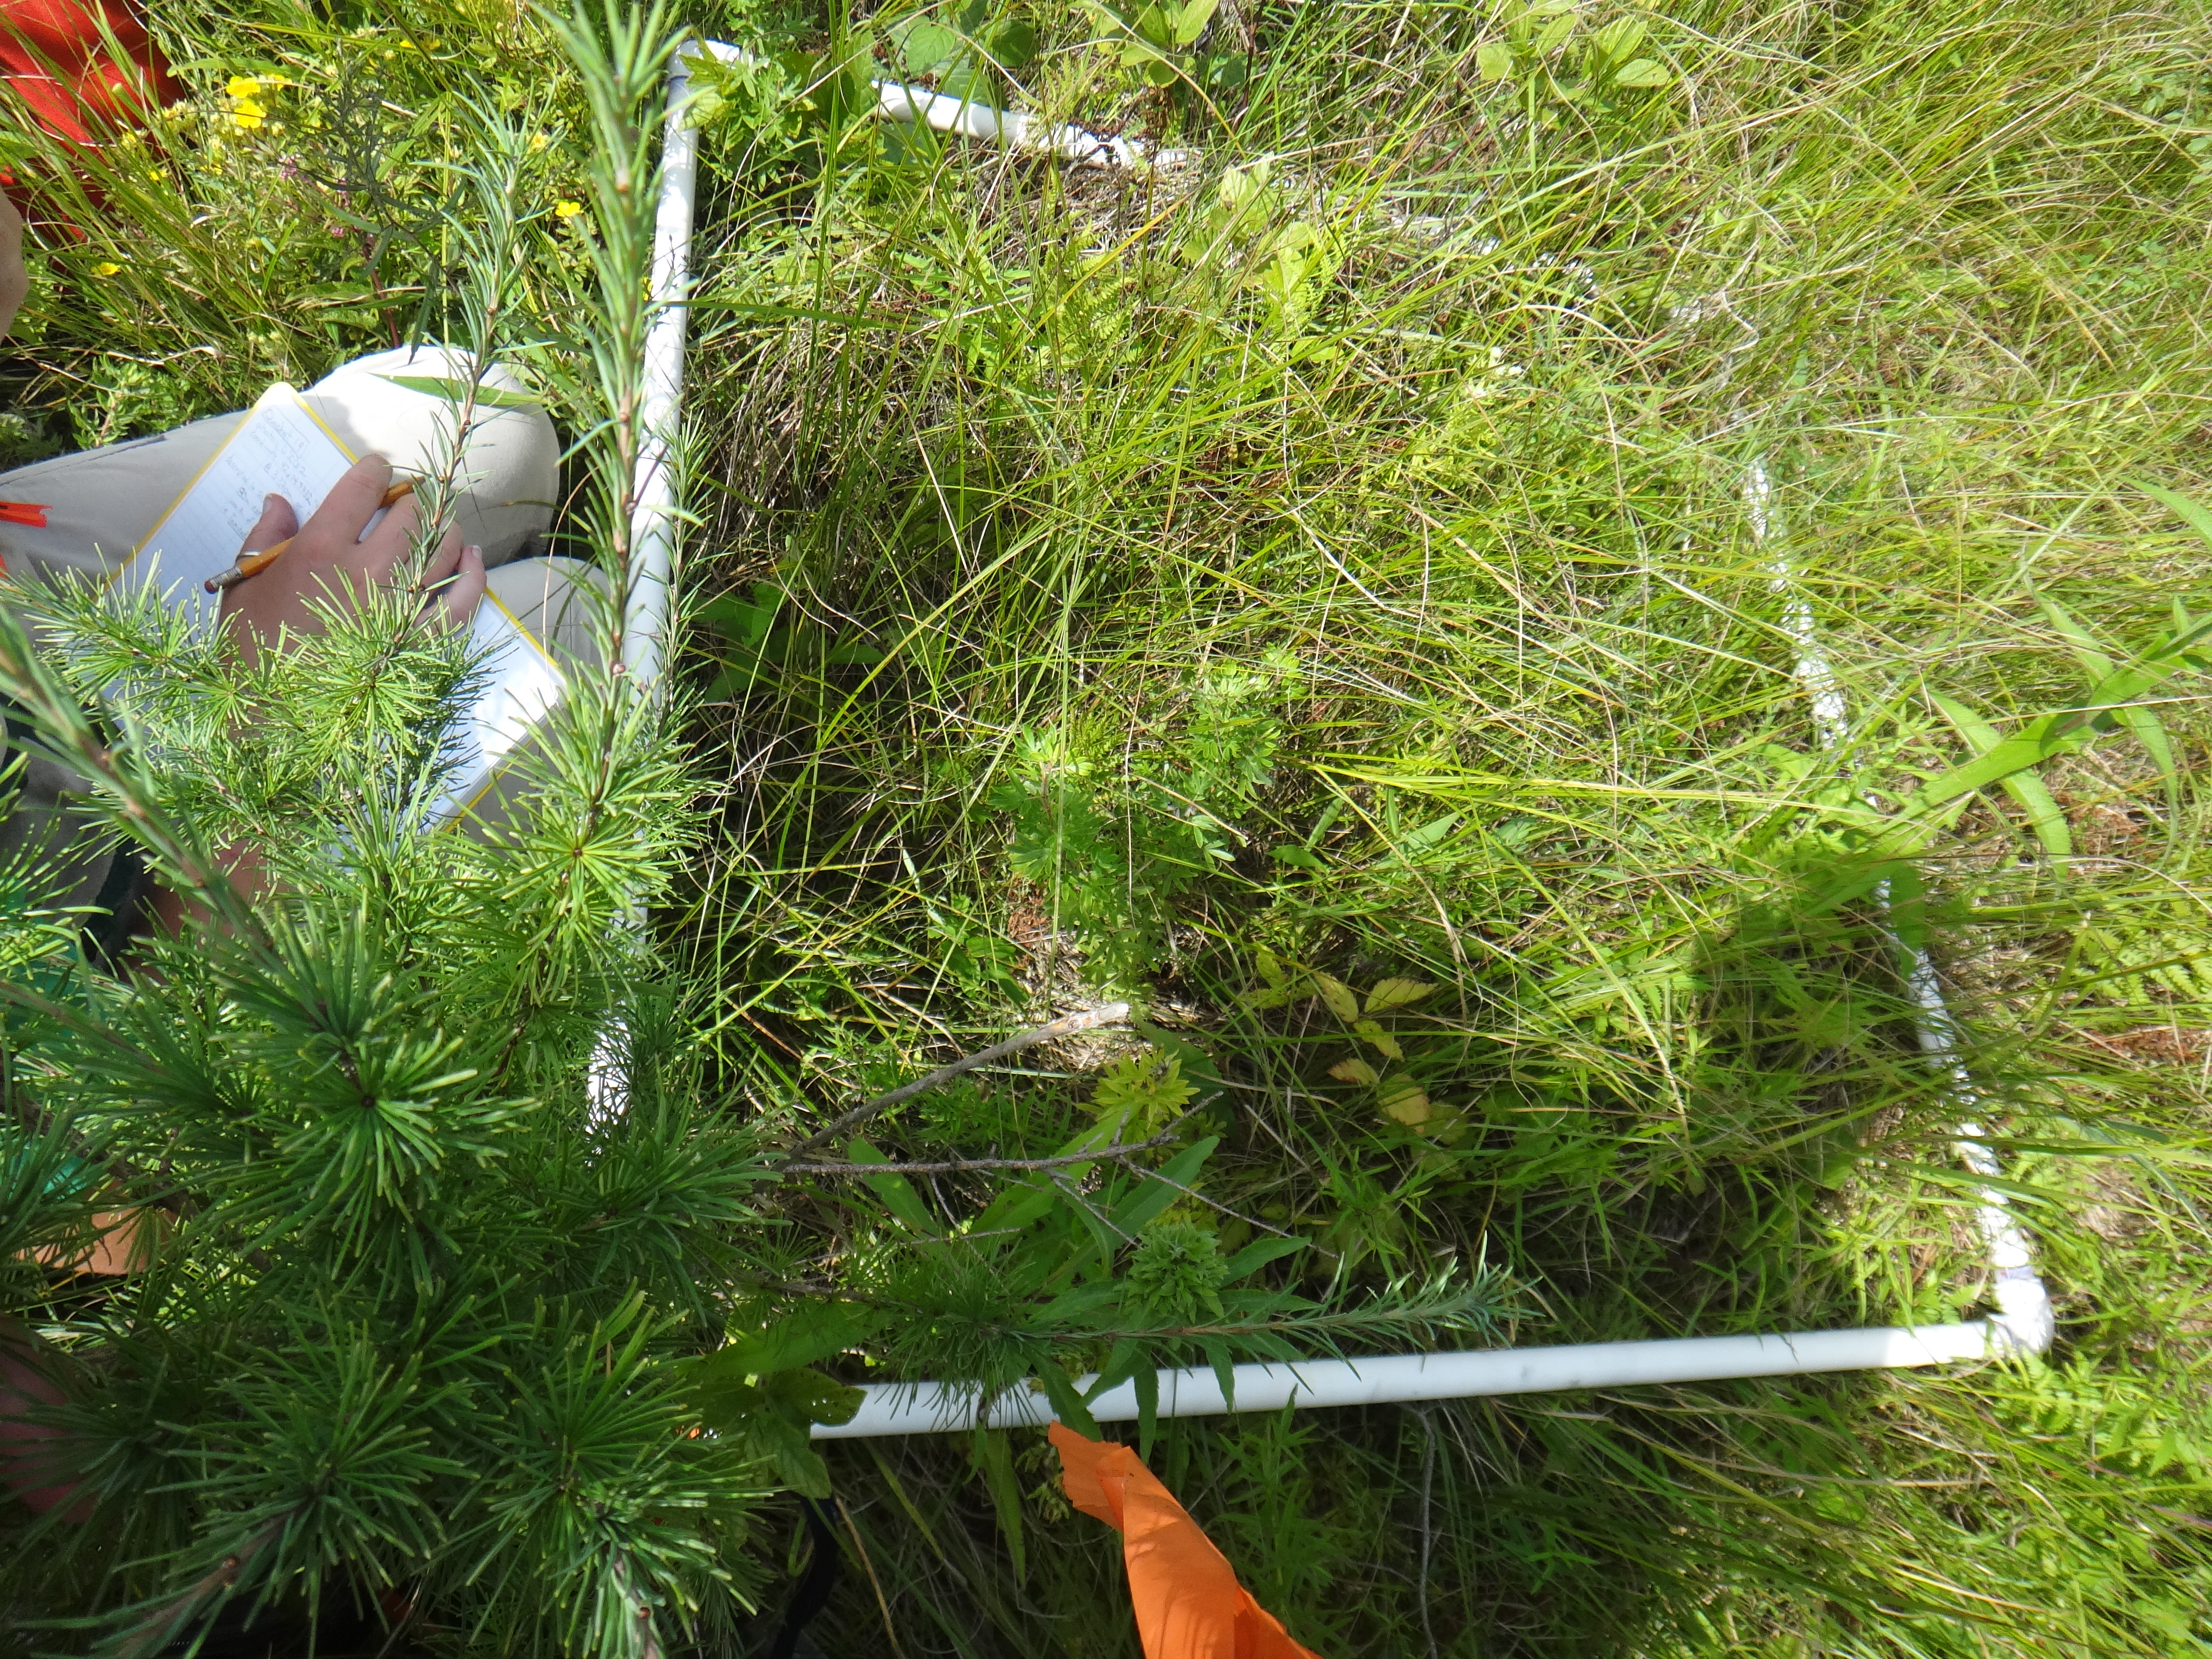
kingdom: Plantae
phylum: Tracheophyta
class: Magnoliopsida
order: Asterales
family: Campanulaceae
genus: Palustricodon
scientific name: Palustricodon aparinoides
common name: Bedstraw bellflower
